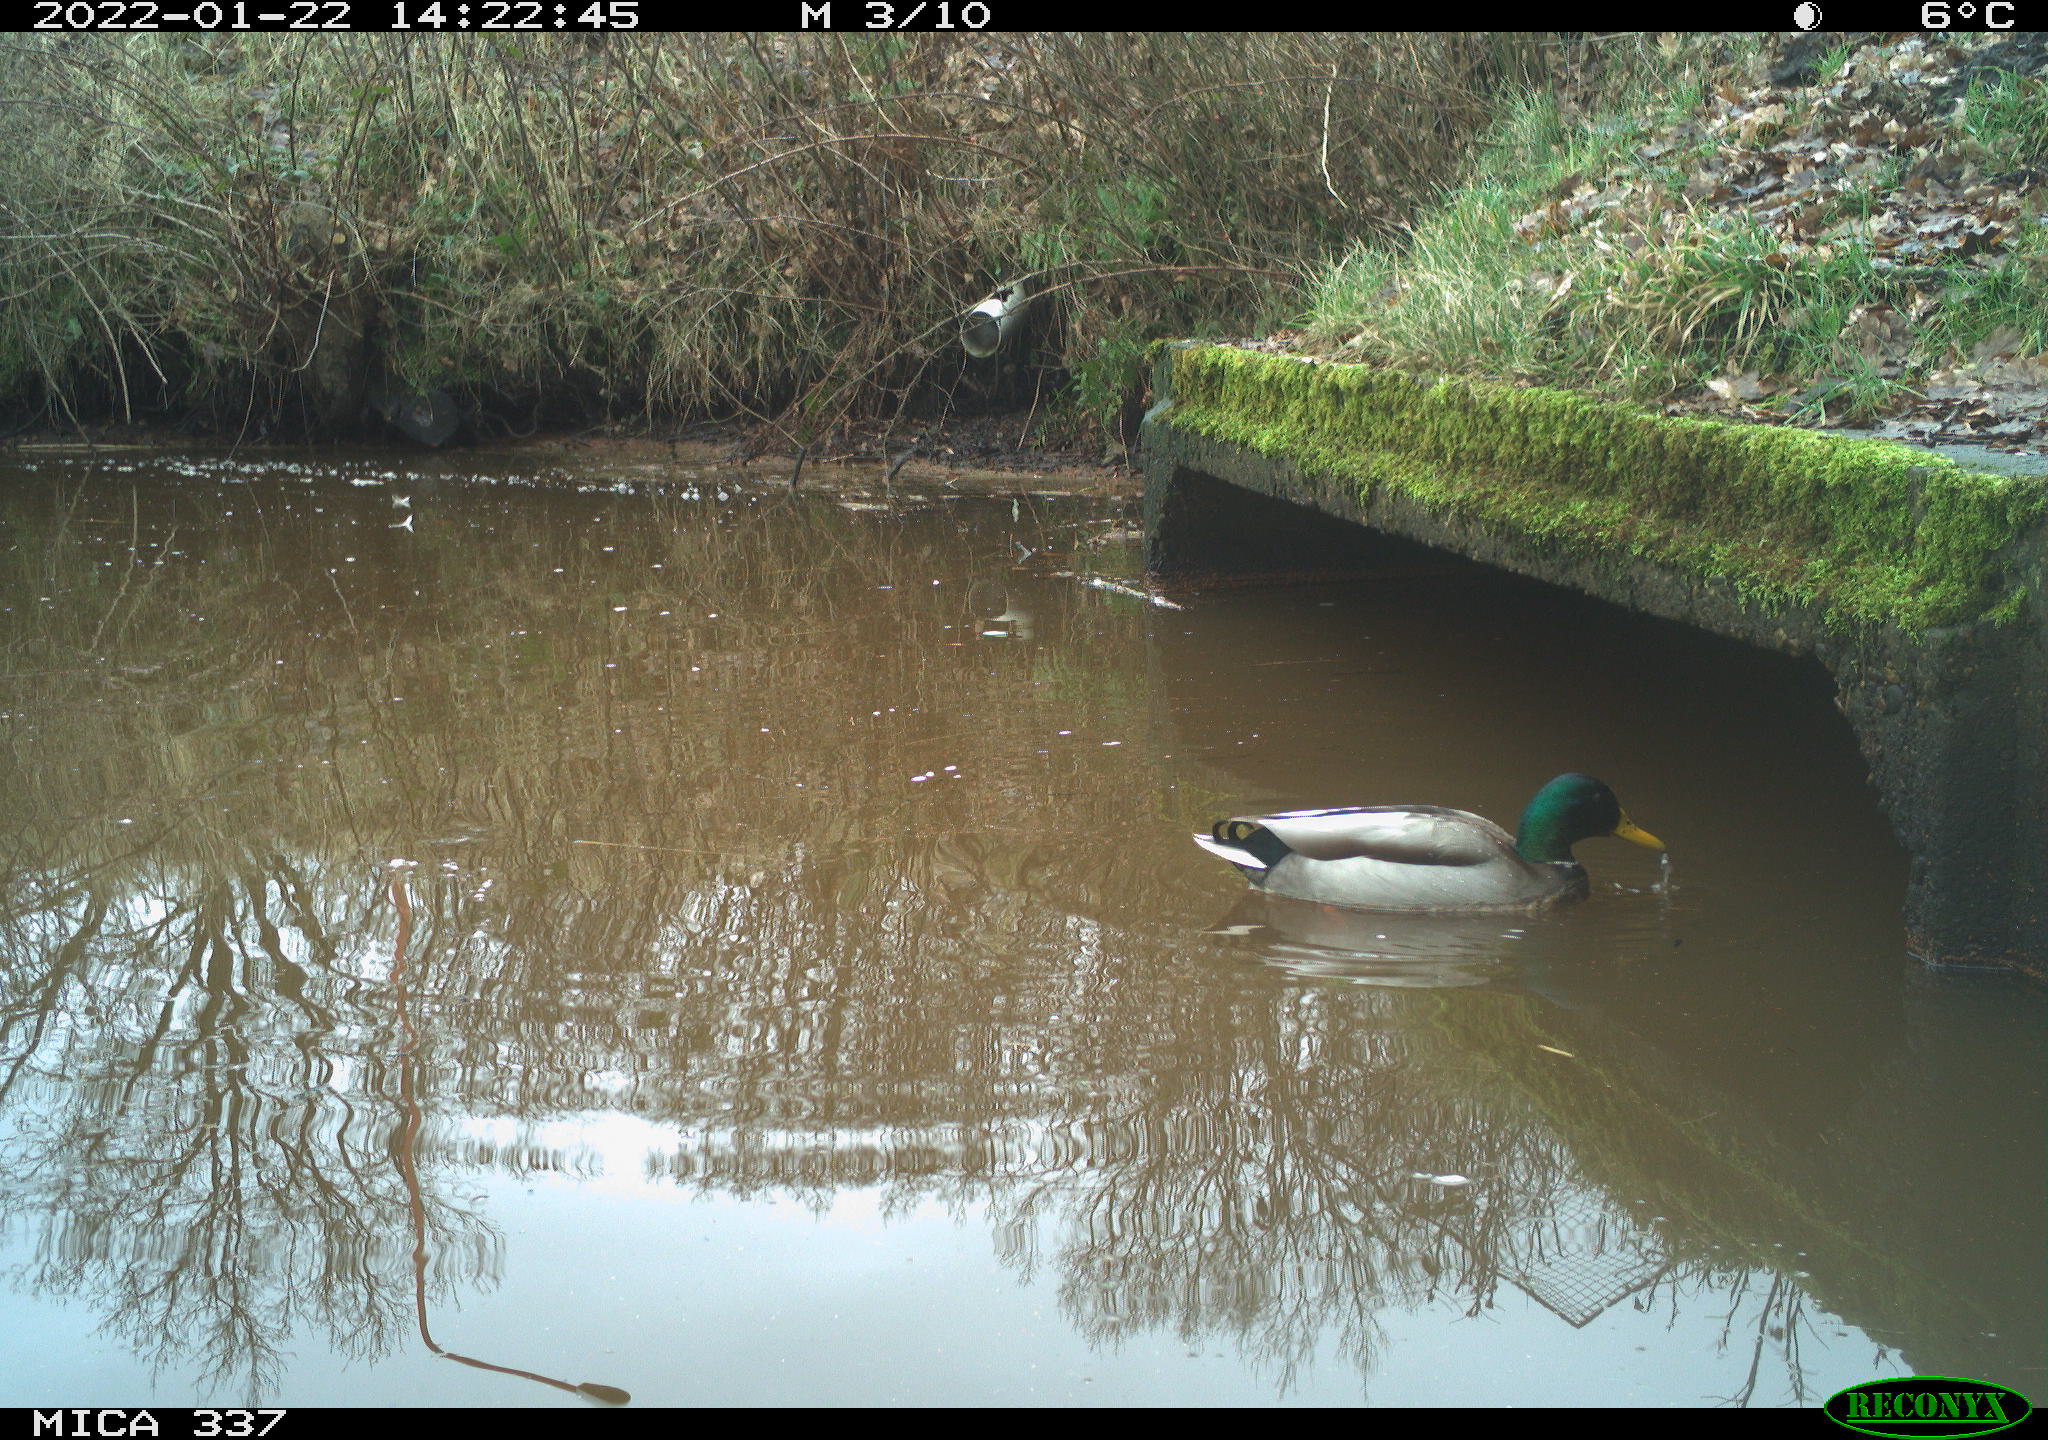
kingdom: Animalia
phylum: Chordata
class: Aves
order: Anseriformes
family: Anatidae
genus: Anas
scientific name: Anas platyrhynchos
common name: Mallard
